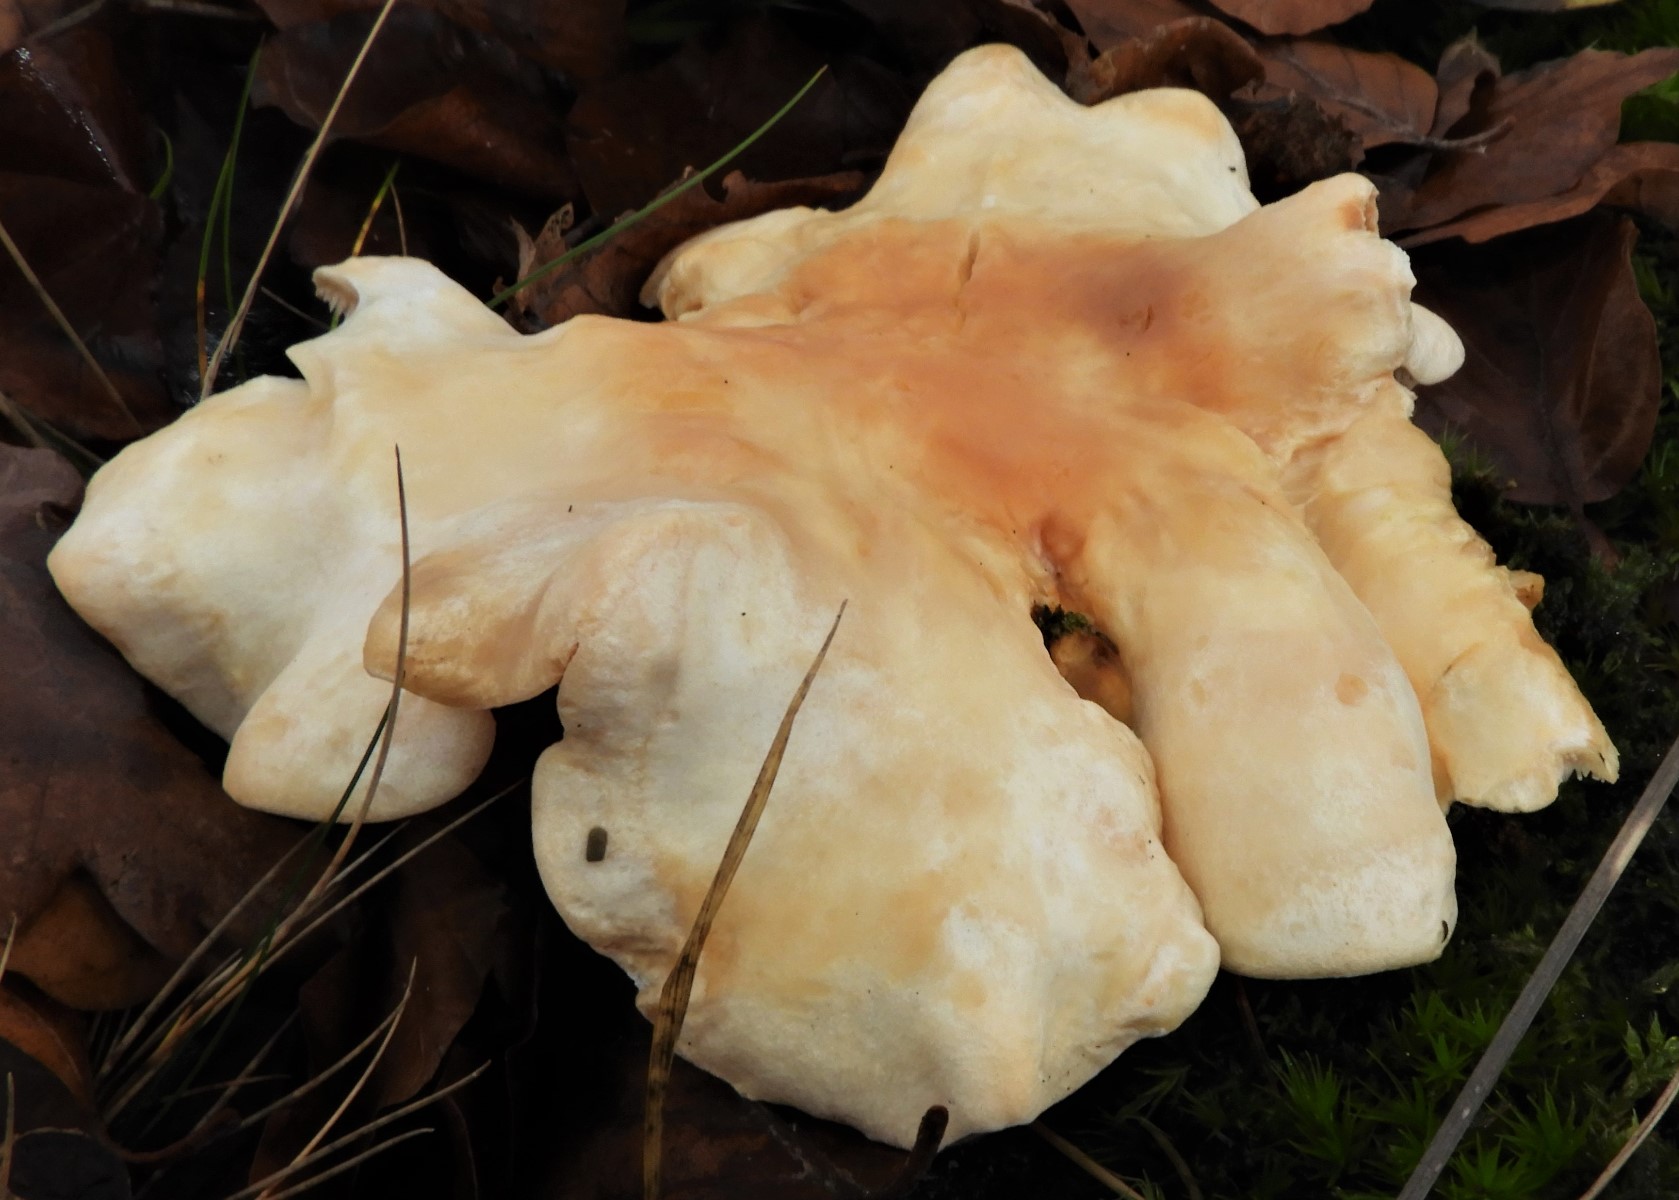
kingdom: Fungi
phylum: Basidiomycota
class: Agaricomycetes
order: Cantharellales
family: Hydnaceae
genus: Hydnum
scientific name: Hydnum repandum
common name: almindelig pigsvamp
